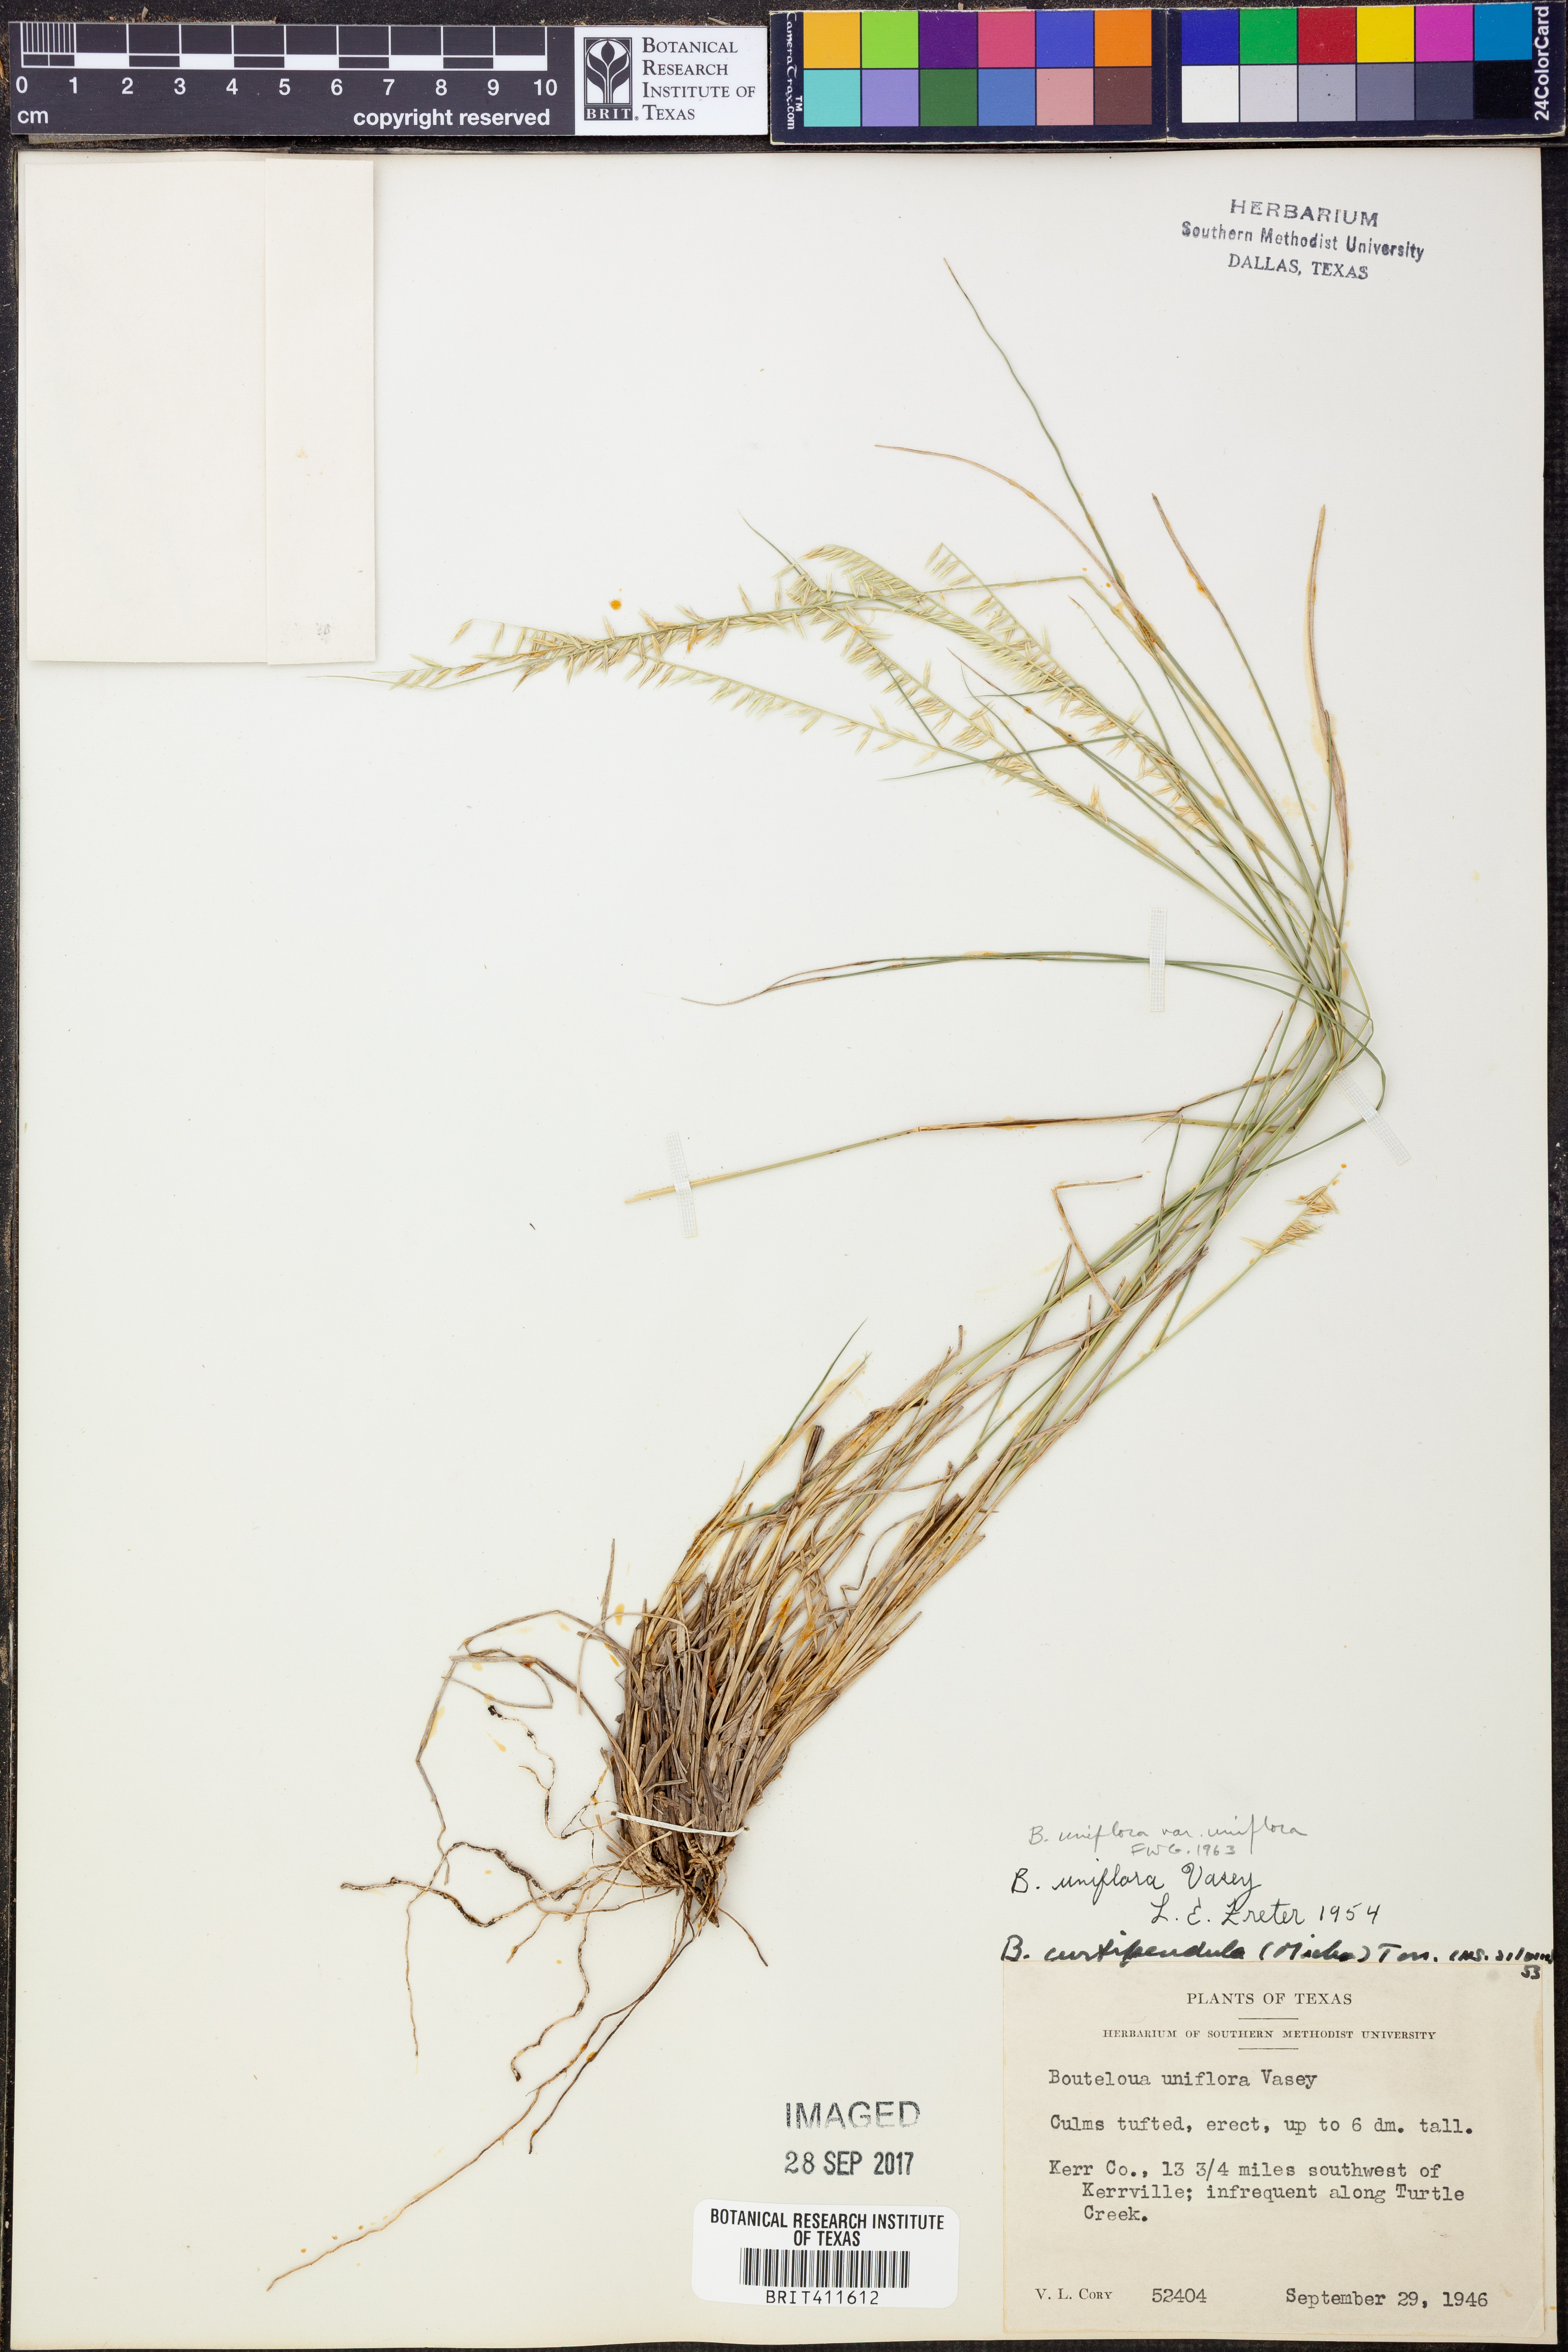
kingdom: Plantae
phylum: Tracheophyta
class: Liliopsida
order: Poales
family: Poaceae
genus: Bouteloua
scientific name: Bouteloua uniflora
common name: Neally's grama
